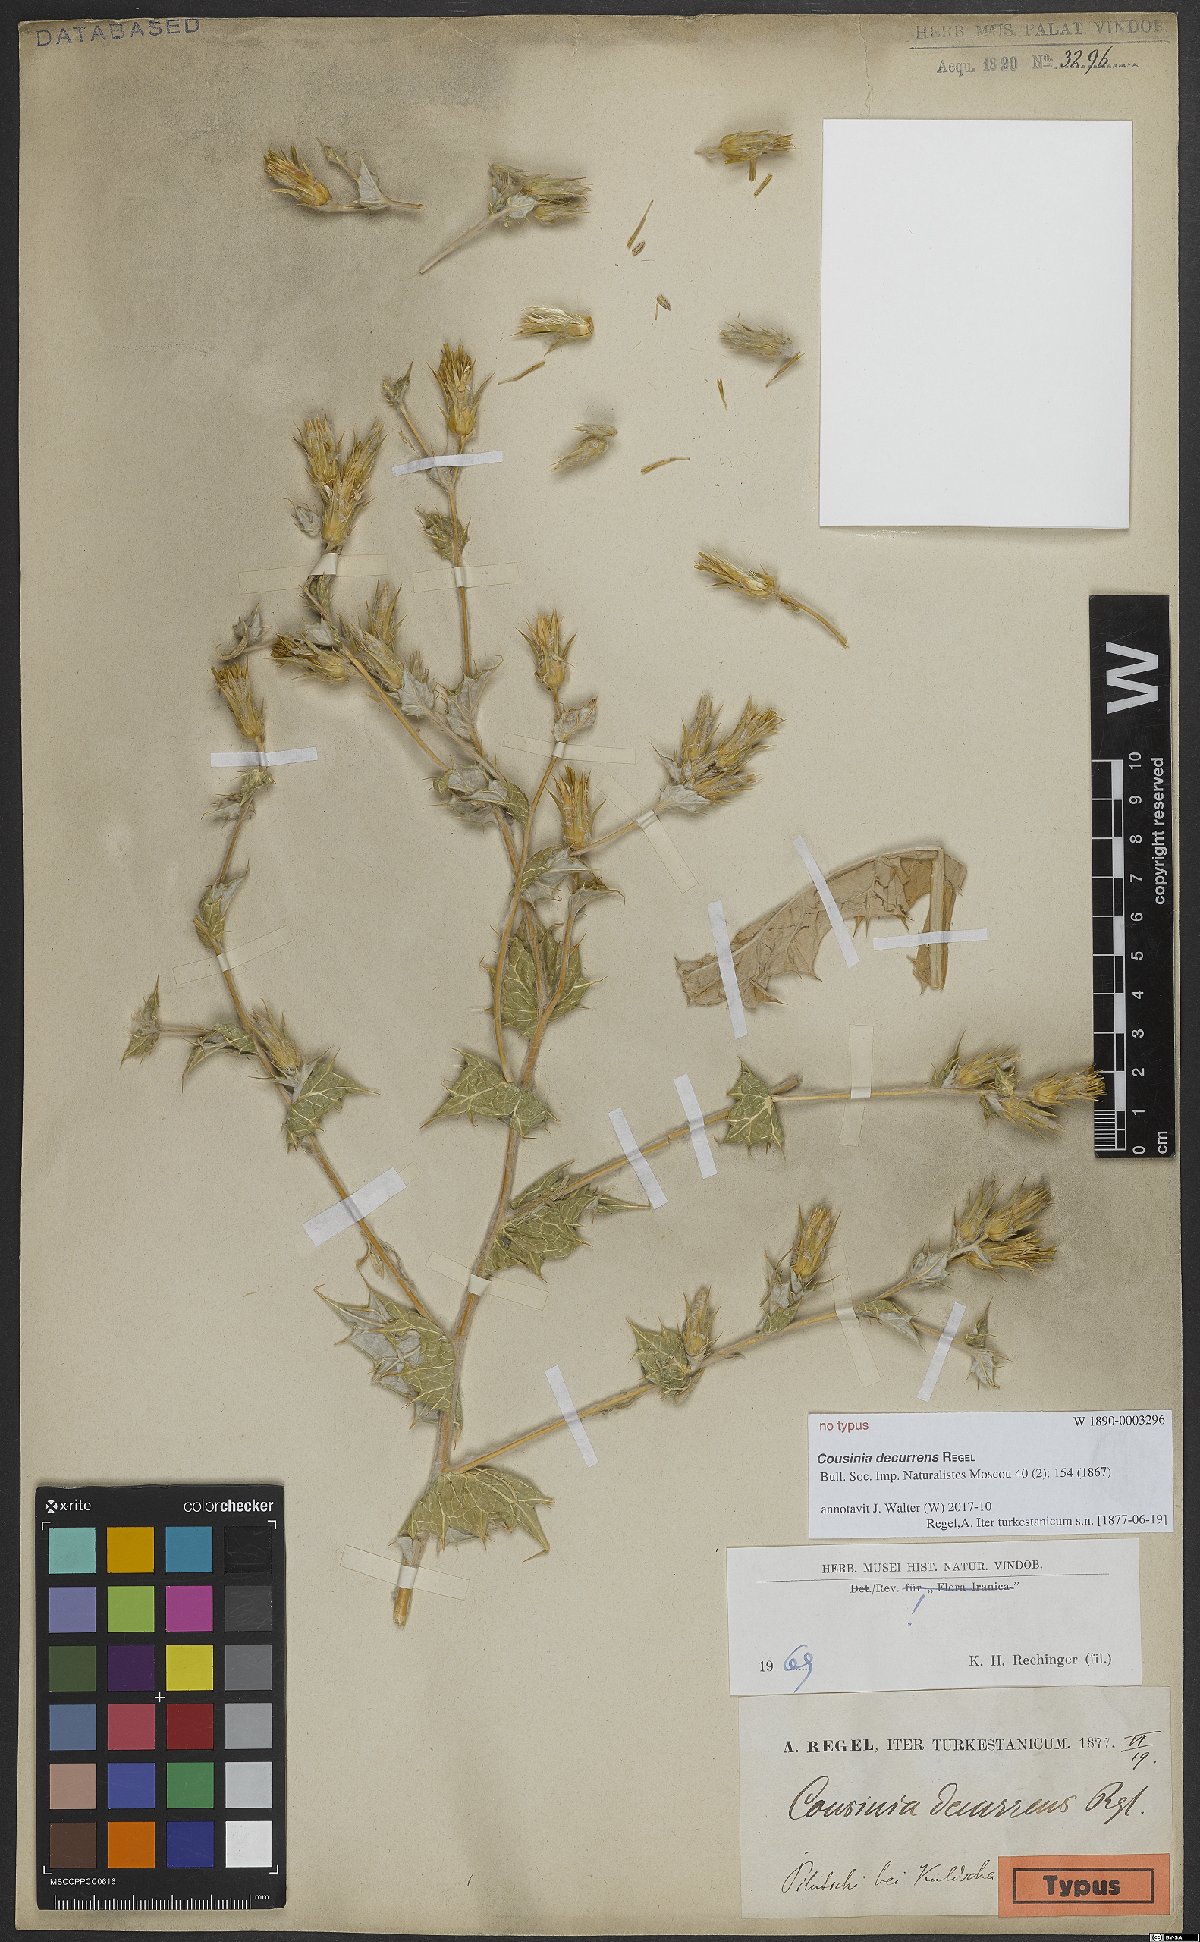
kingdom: Plantae
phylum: Tracheophyta
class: Magnoliopsida
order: Asterales
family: Asteraceae
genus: Cousinia
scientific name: Cousinia decurrens
